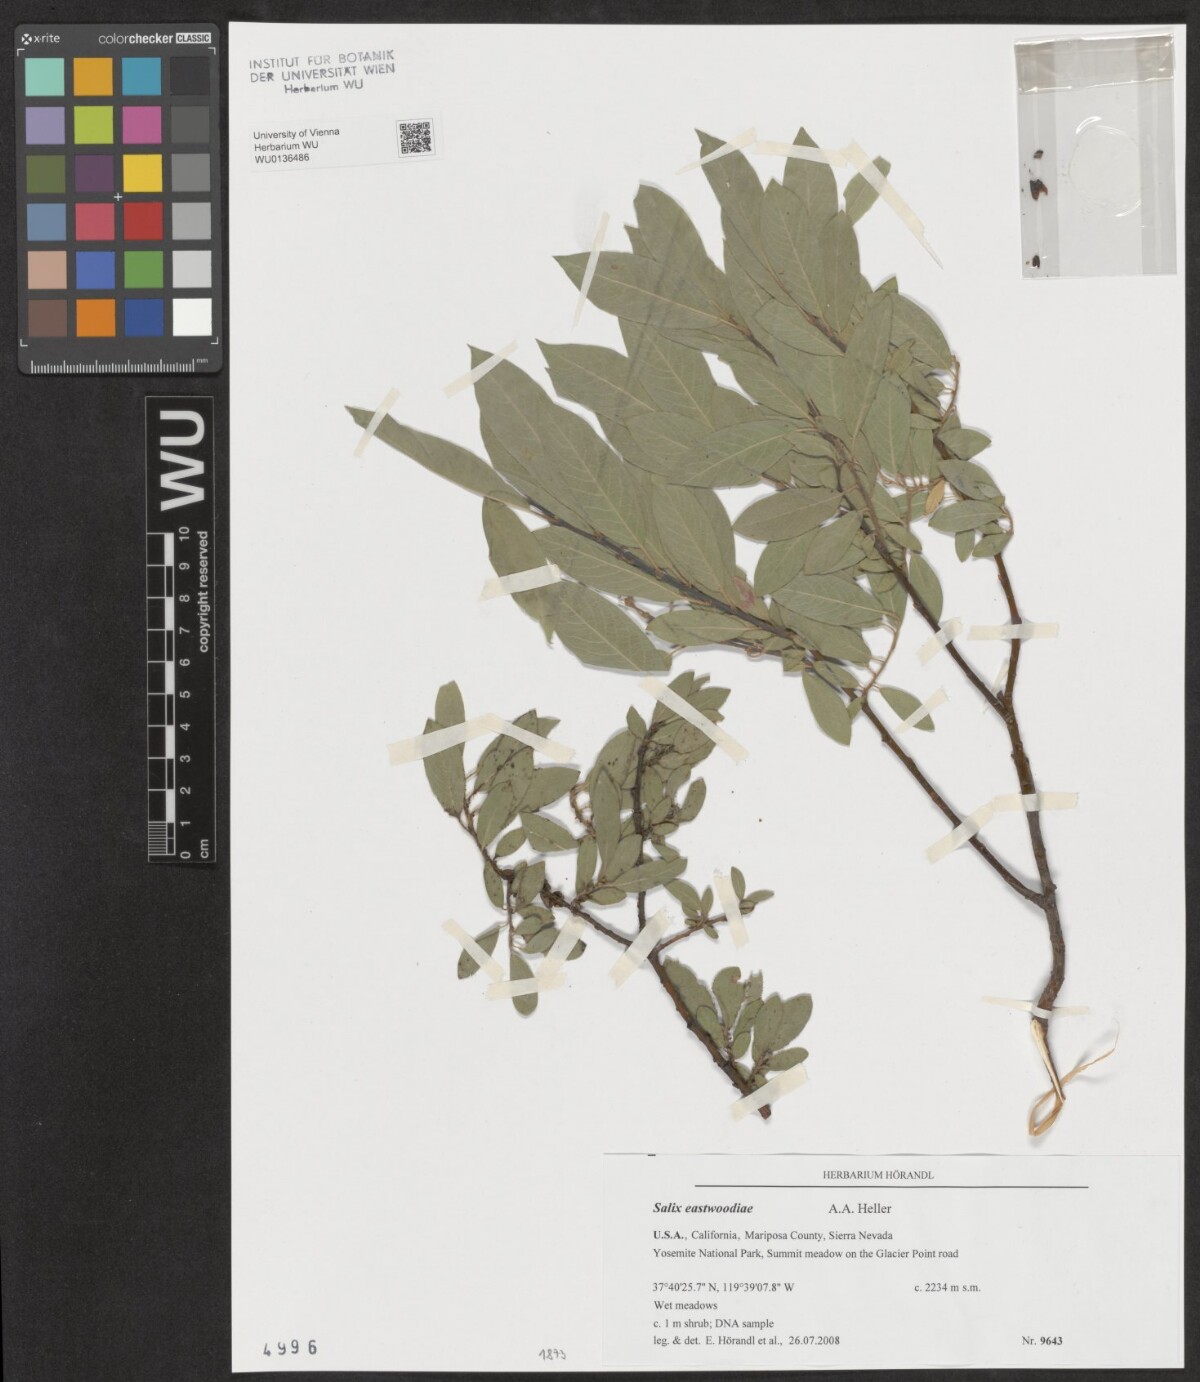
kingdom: Plantae
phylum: Tracheophyta
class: Magnoliopsida
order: Malpighiales
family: Salicaceae
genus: Salix
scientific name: Salix eastwoodiae
